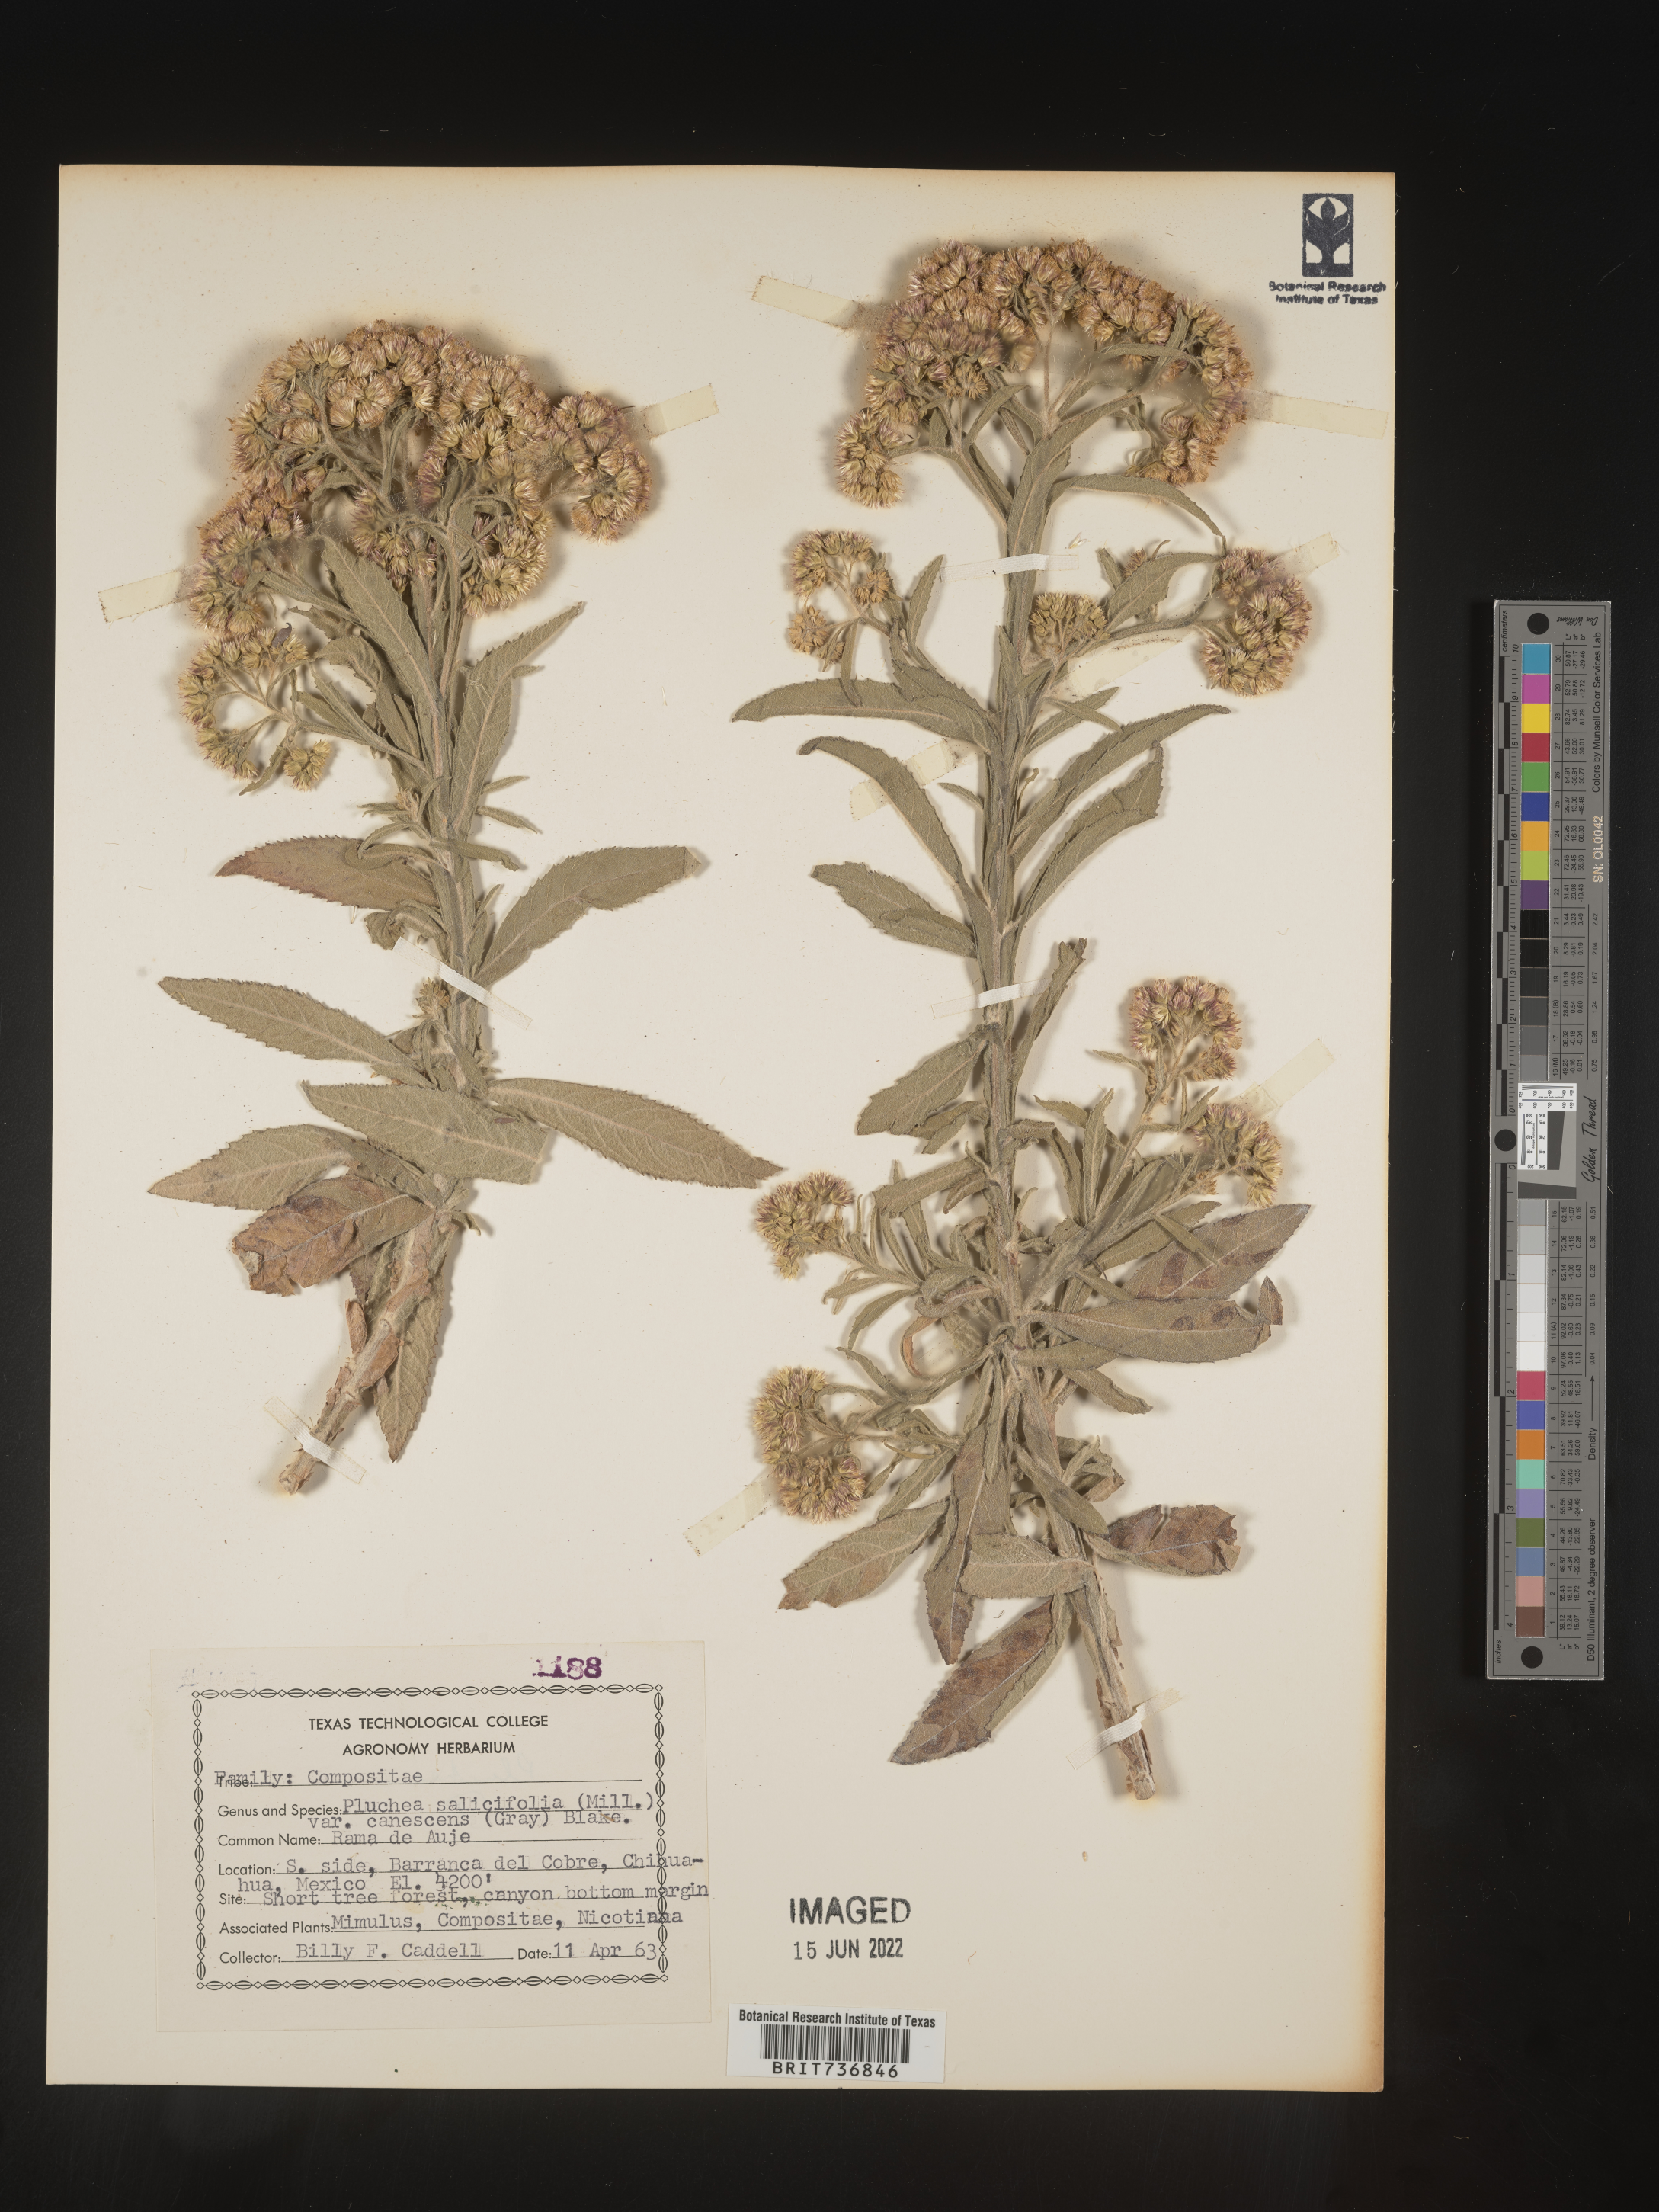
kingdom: Plantae
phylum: Tracheophyta
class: Magnoliopsida
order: Asterales
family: Asteraceae
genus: Pluchea
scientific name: Pluchea
